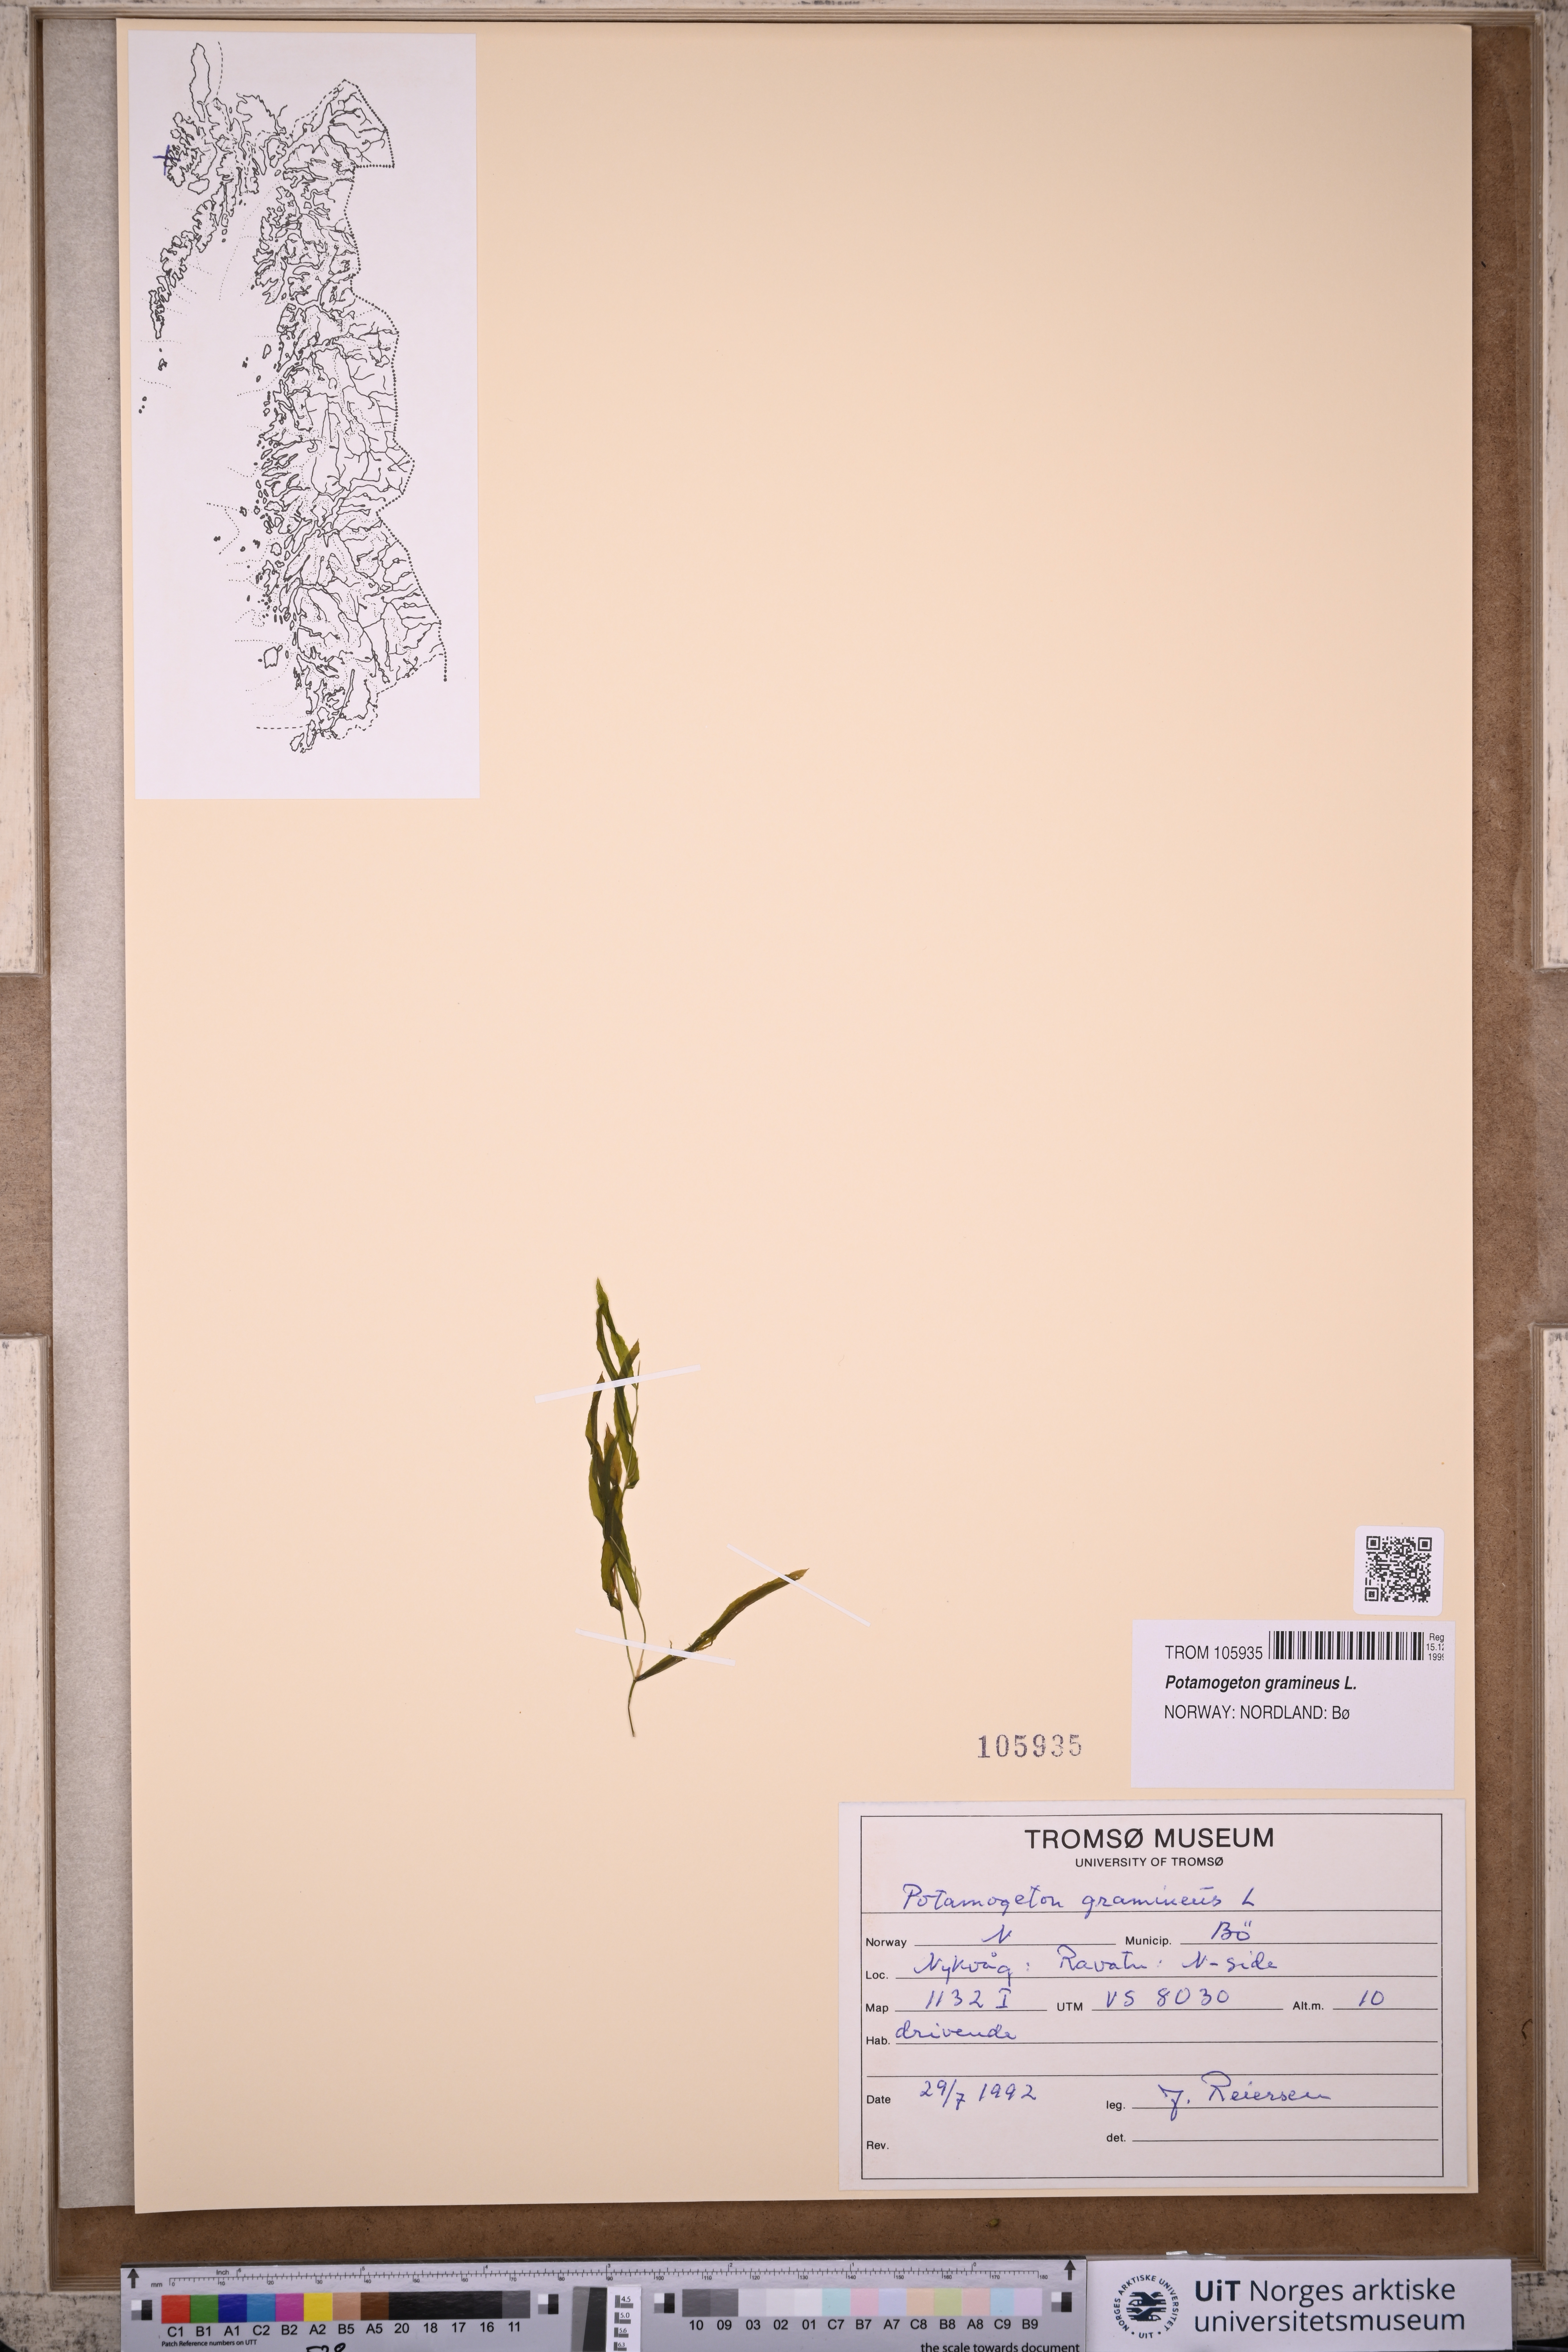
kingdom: Plantae
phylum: Tracheophyta
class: Liliopsida
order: Alismatales
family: Potamogetonaceae
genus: Potamogeton
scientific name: Potamogeton gramineus
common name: Various-leaved pondweed
